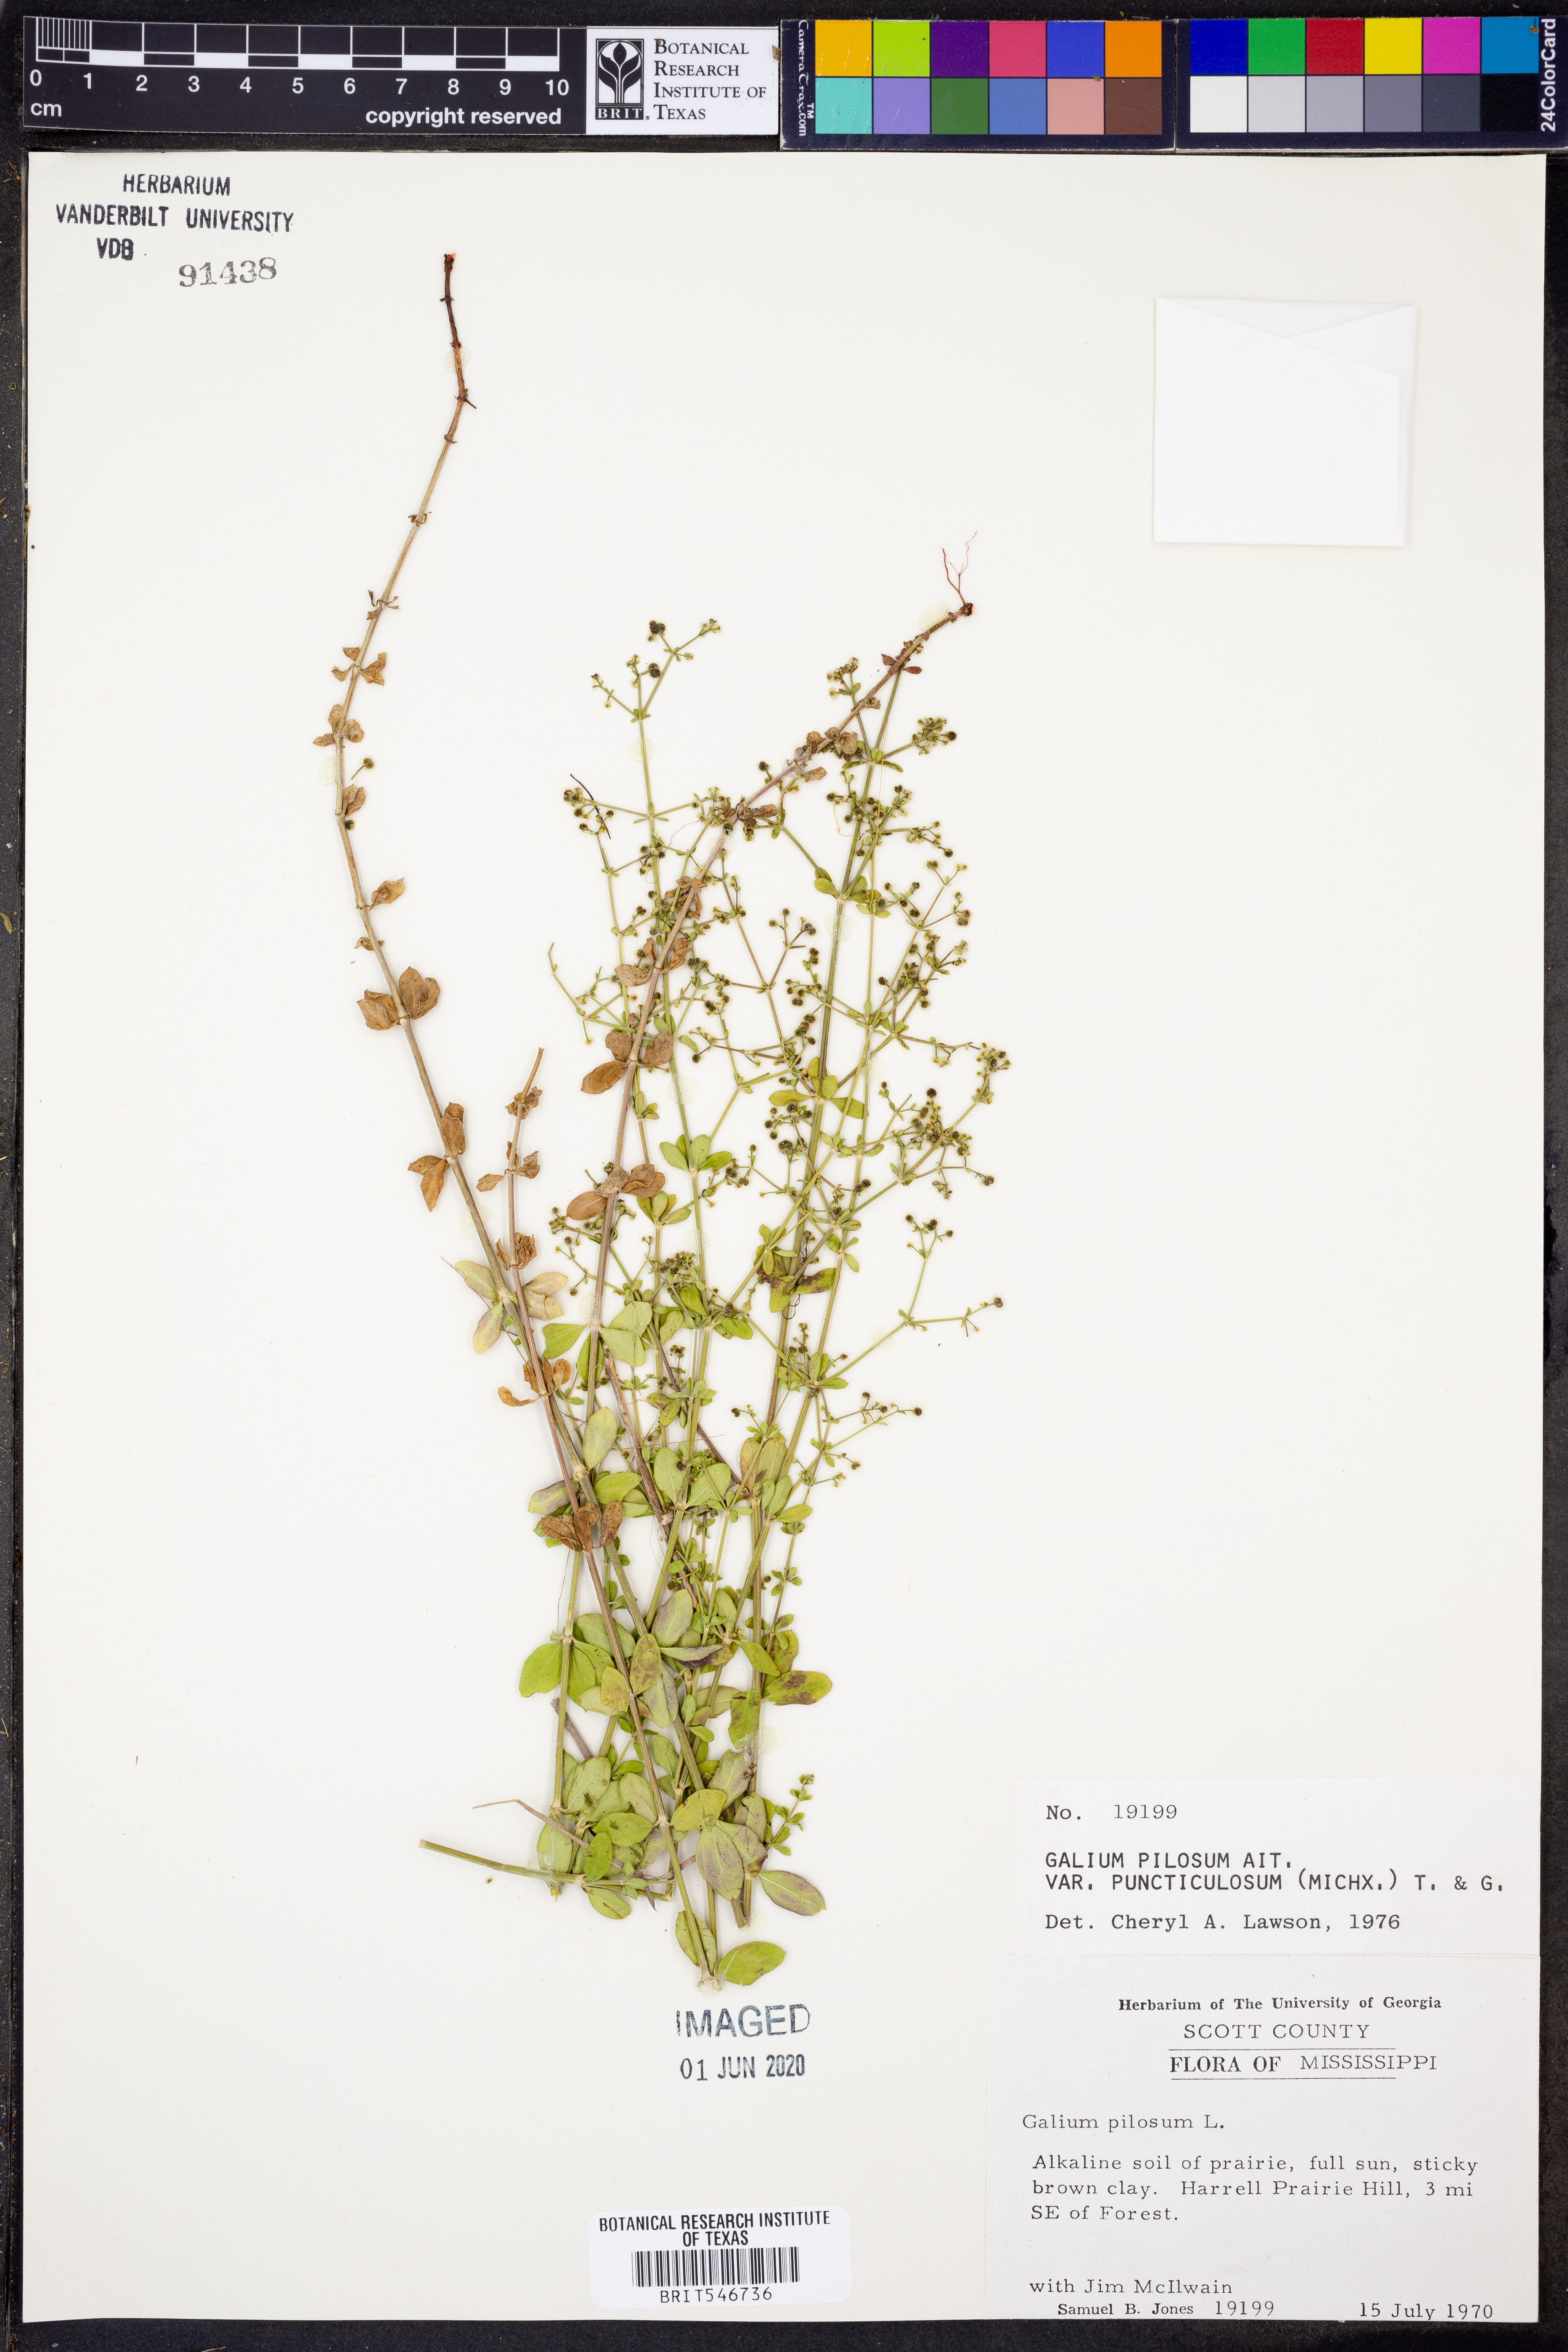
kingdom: Plantae
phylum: Tracheophyta
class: Magnoliopsida
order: Gentianales
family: Rubiaceae
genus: Galium
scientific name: Galium pilosum
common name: Hairy bedstraw
